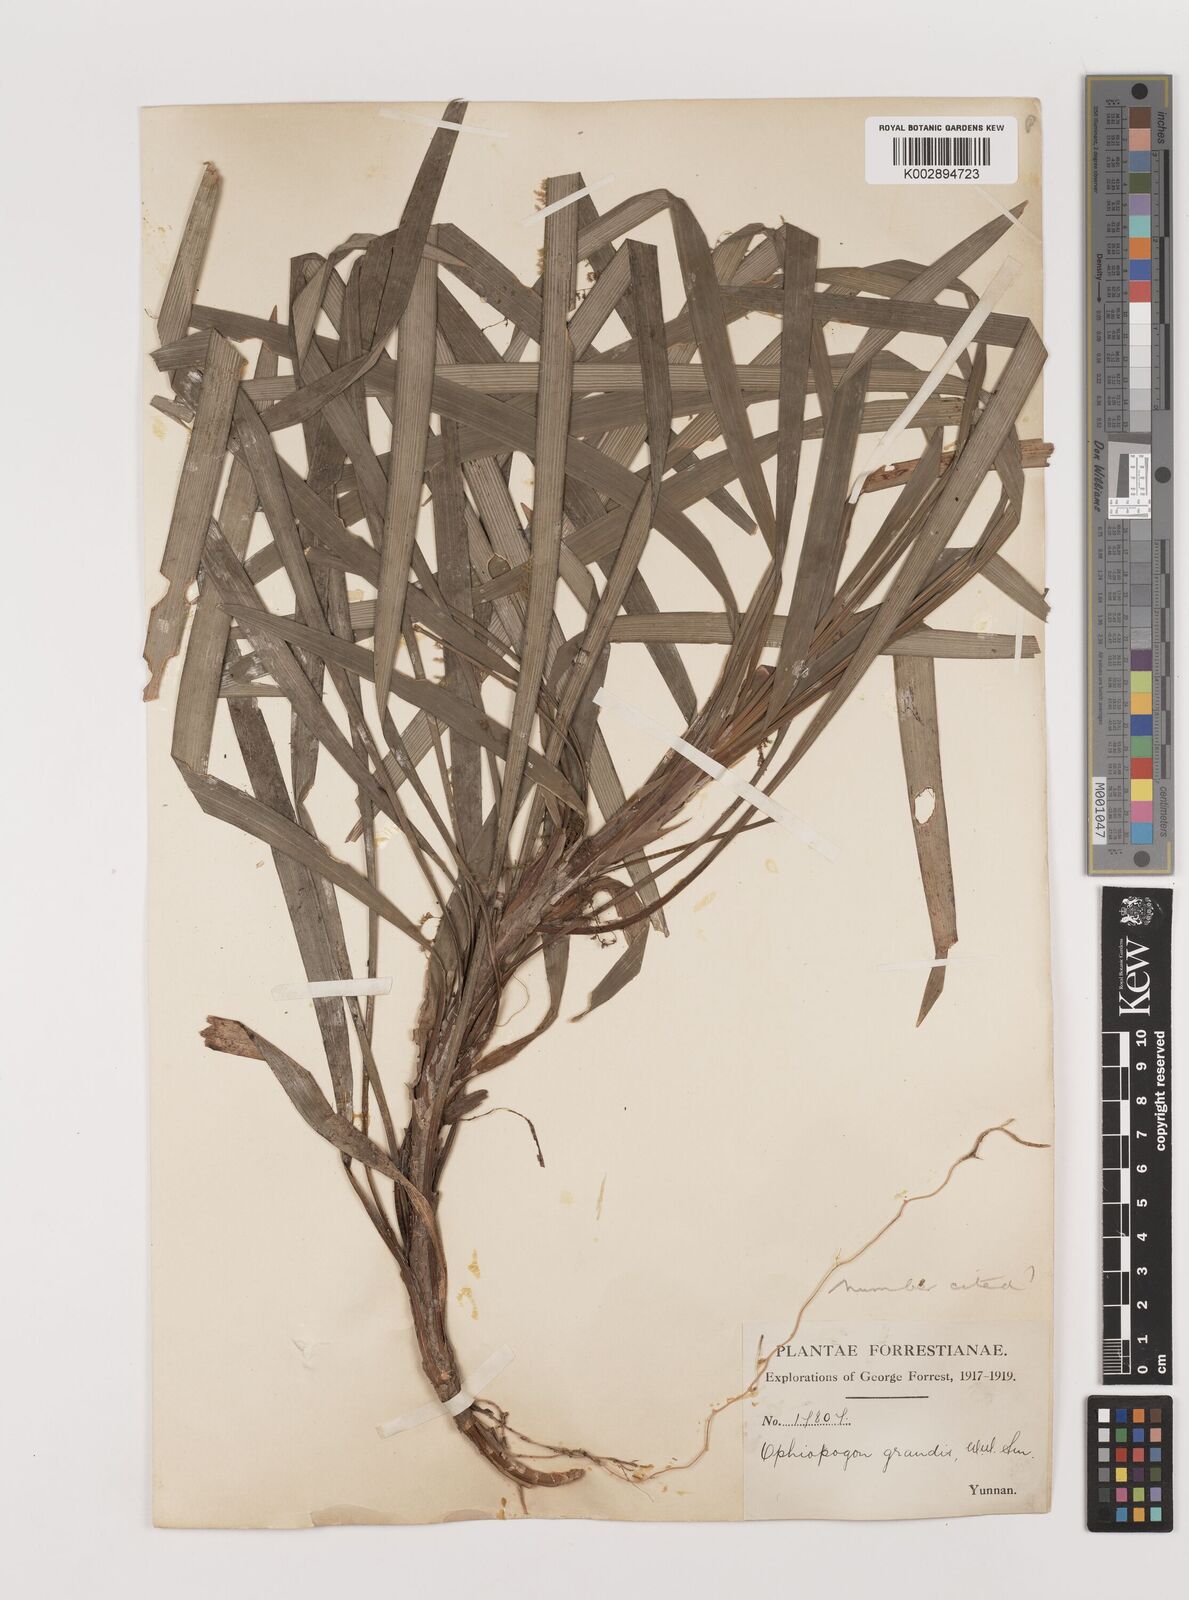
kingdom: Plantae
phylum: Tracheophyta
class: Liliopsida
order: Asparagales
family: Asparagaceae
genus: Ophiopogon
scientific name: Ophiopogon grandis
